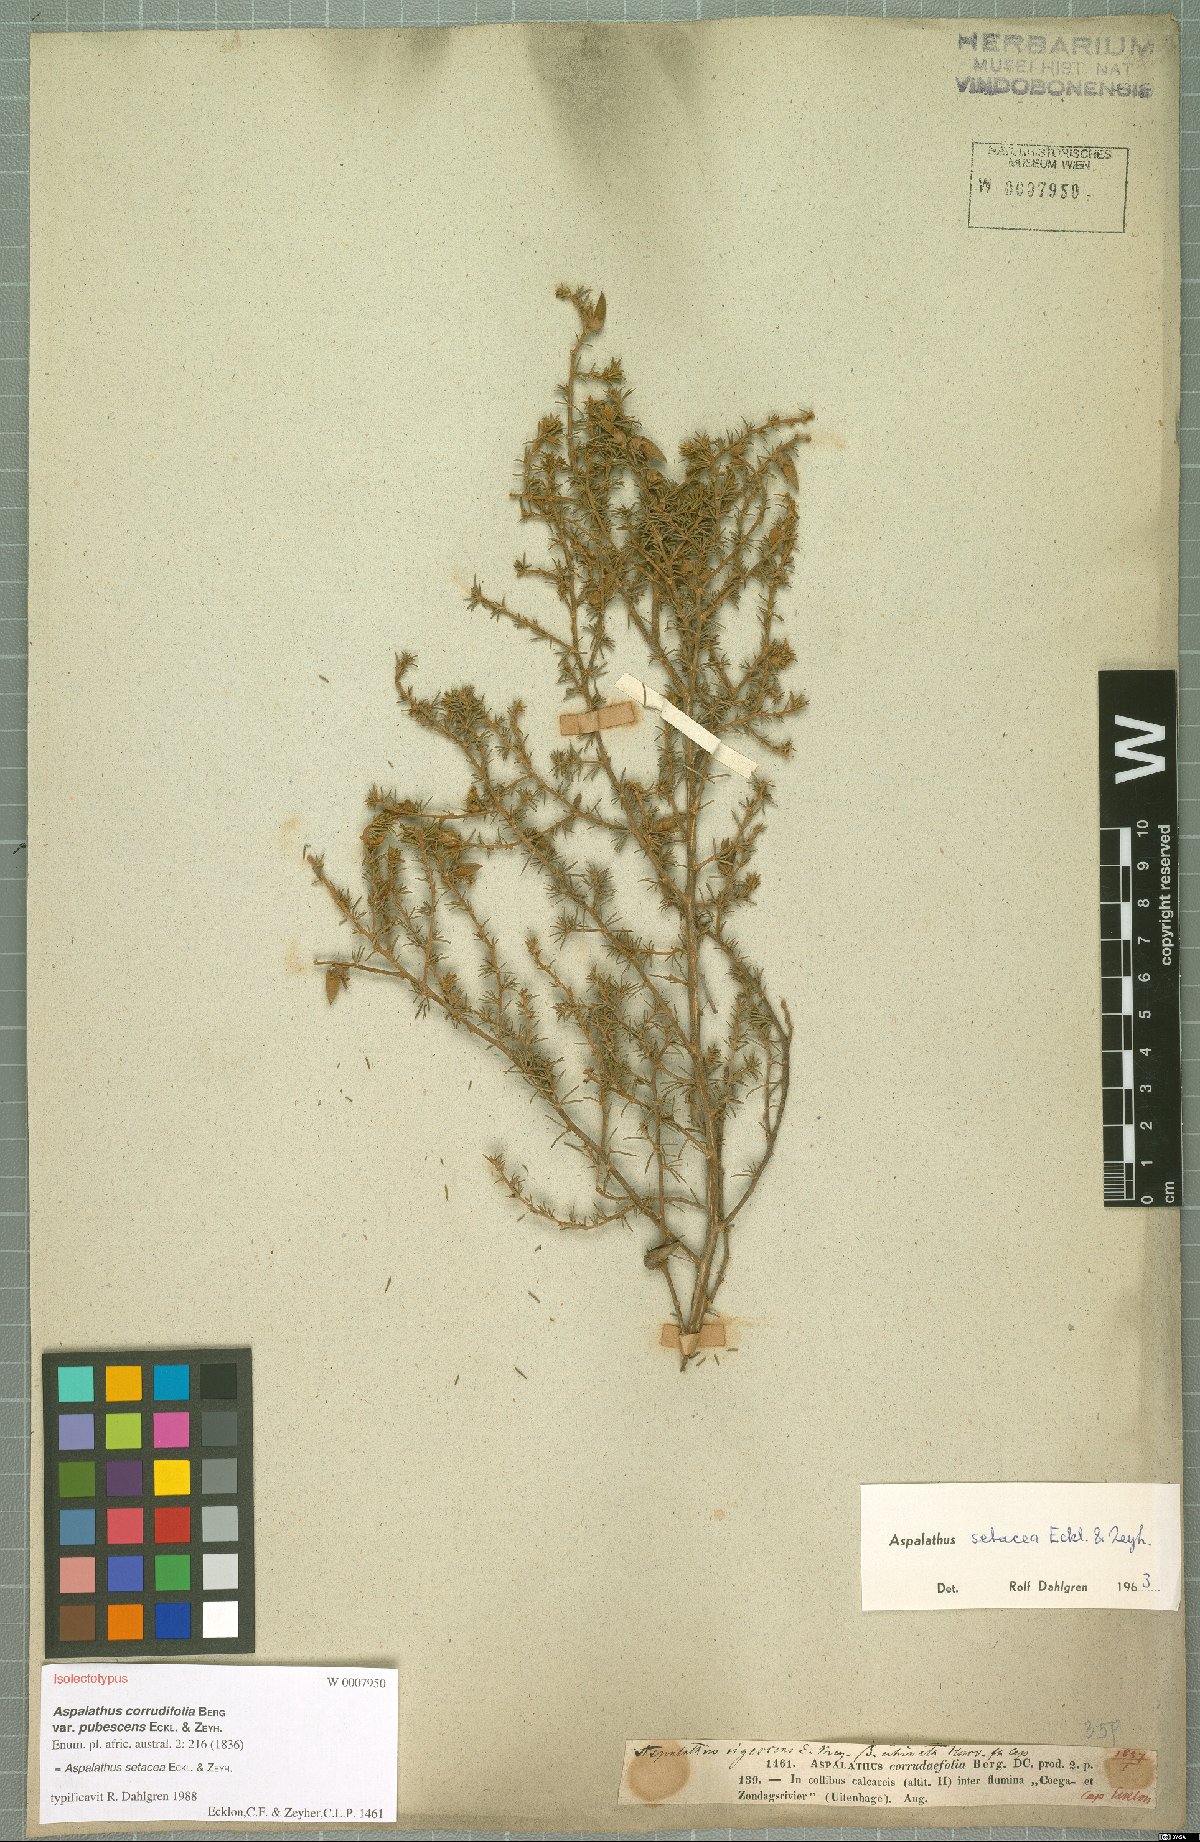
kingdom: Plantae
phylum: Tracheophyta
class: Magnoliopsida
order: Fabales
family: Fabaceae
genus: Aspalathus
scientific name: Aspalathus setacea
